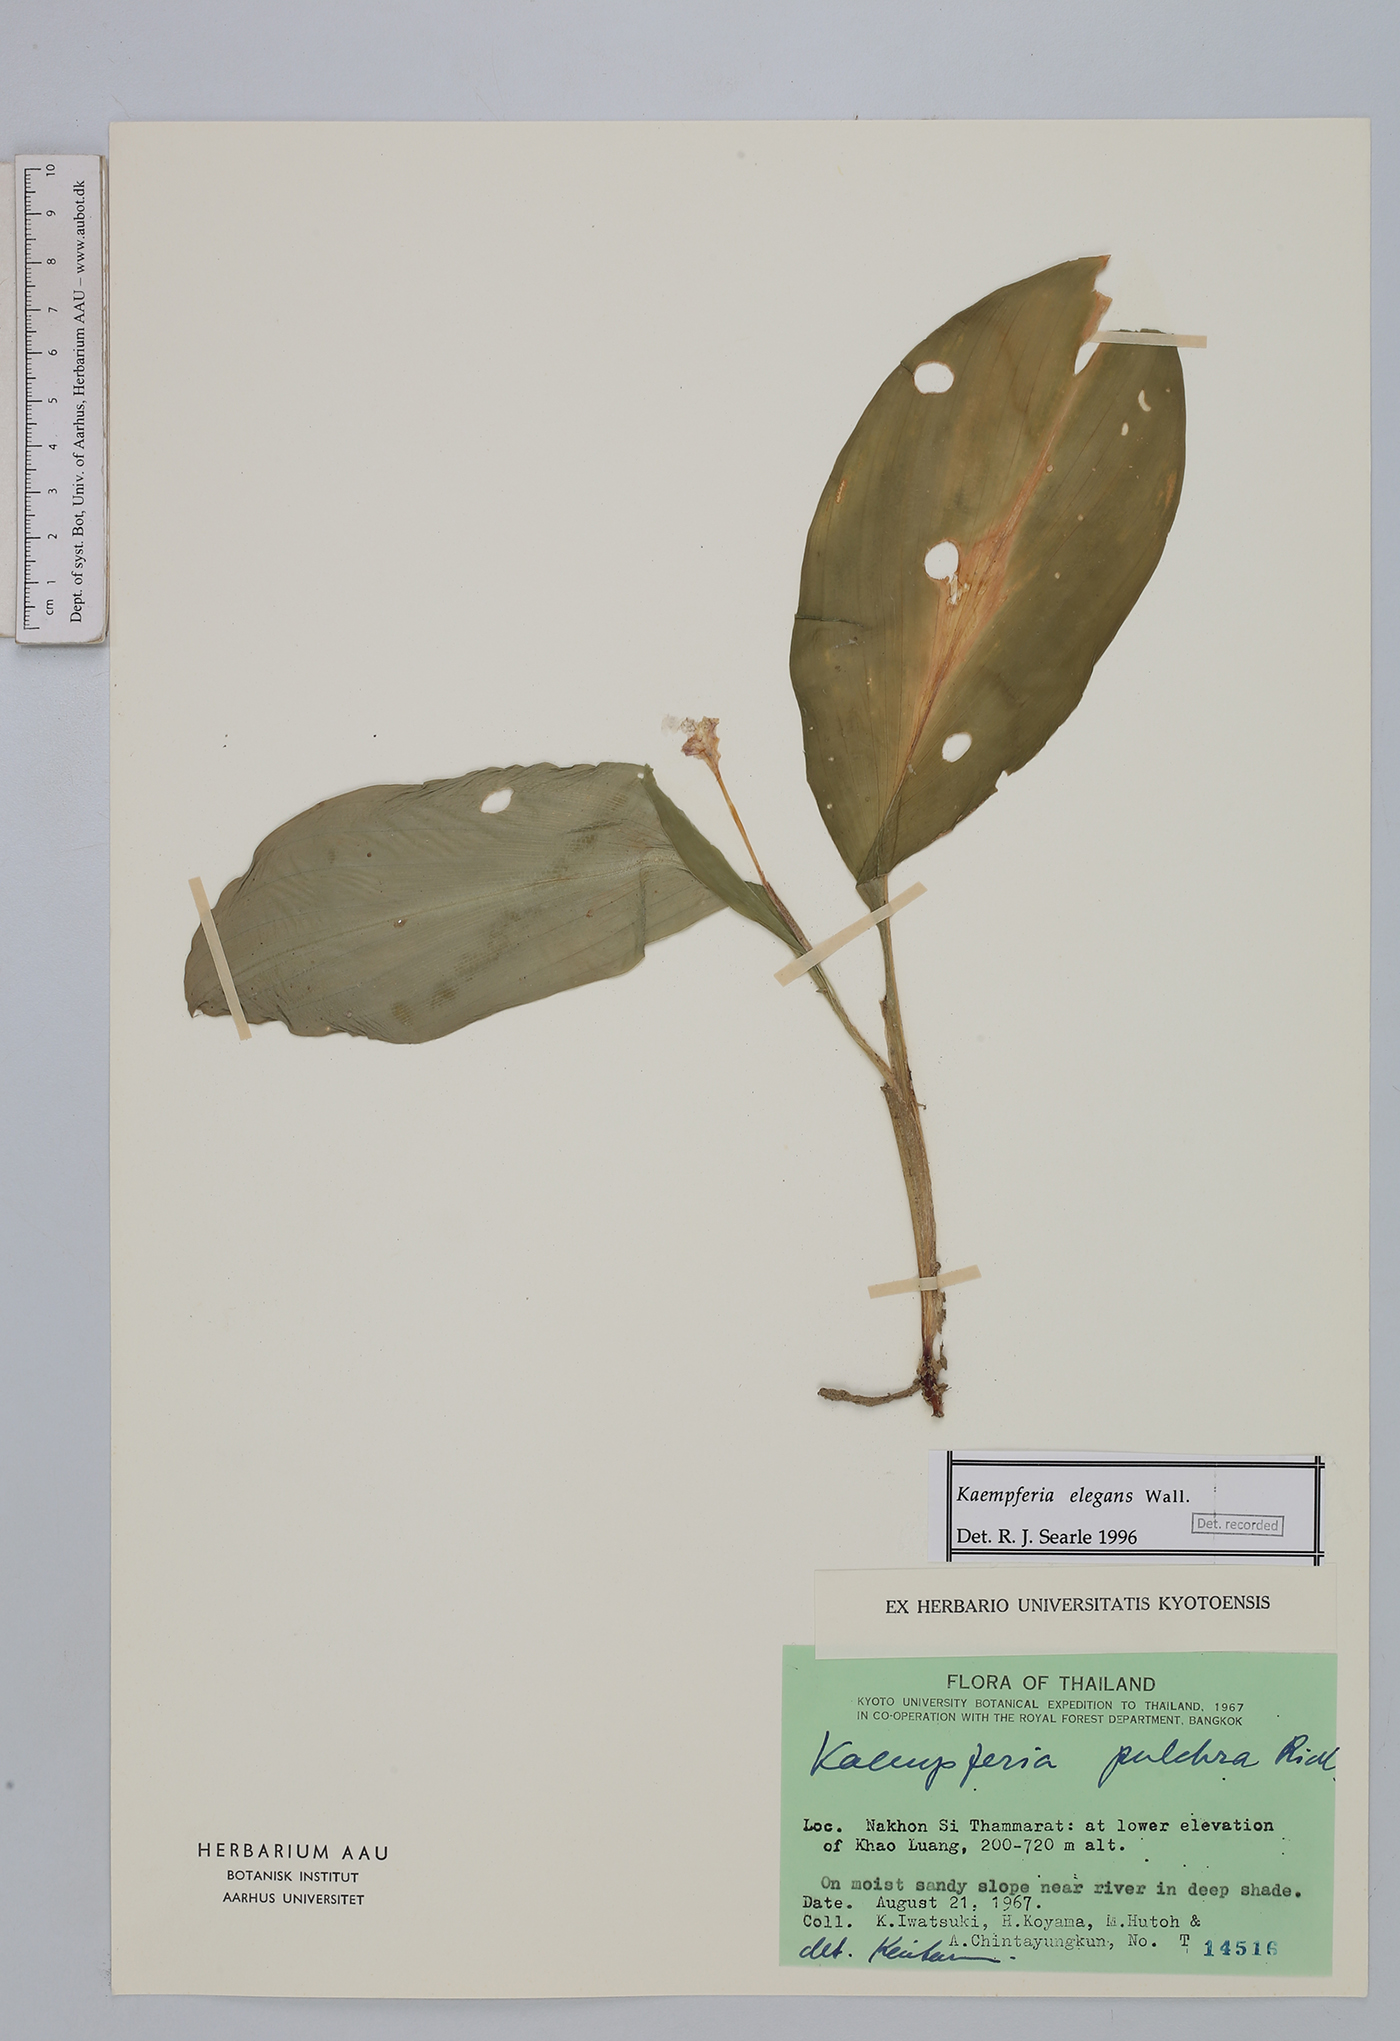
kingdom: Plantae
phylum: Tracheophyta
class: Liliopsida
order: Zingiberales
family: Zingiberaceae
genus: Kaempferia
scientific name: Kaempferia elegans
